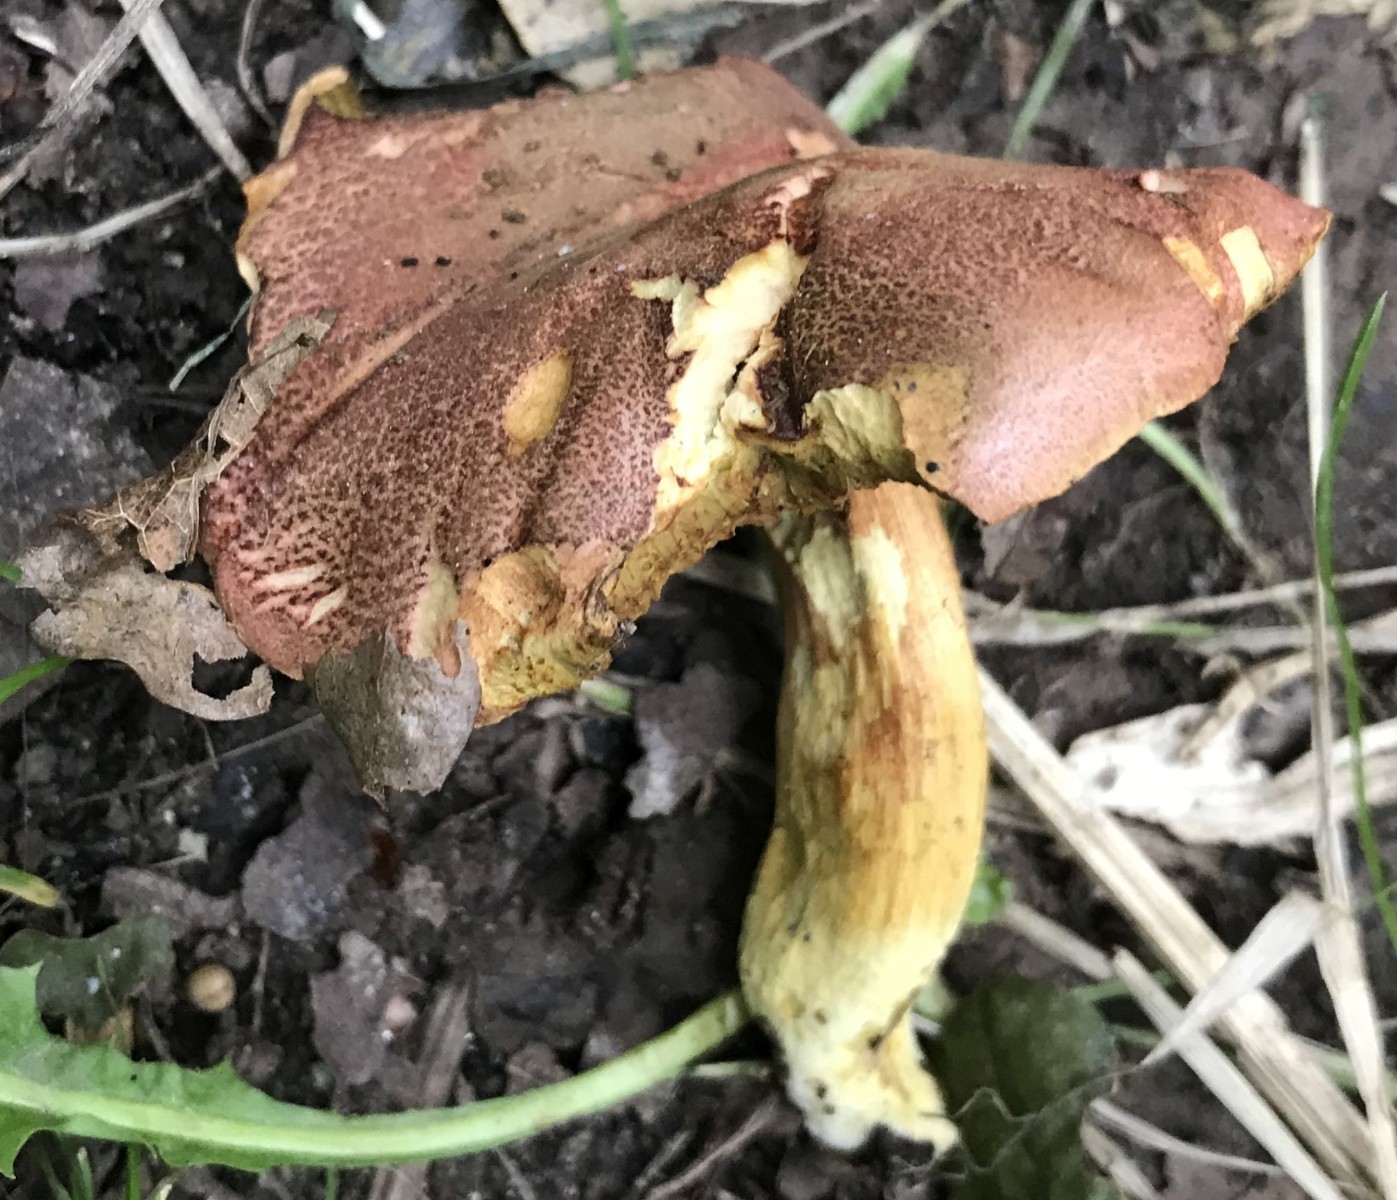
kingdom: Fungi
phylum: Basidiomycota
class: Agaricomycetes
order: Boletales
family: Boletaceae
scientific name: Boletaceae
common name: rørhatfamilien
